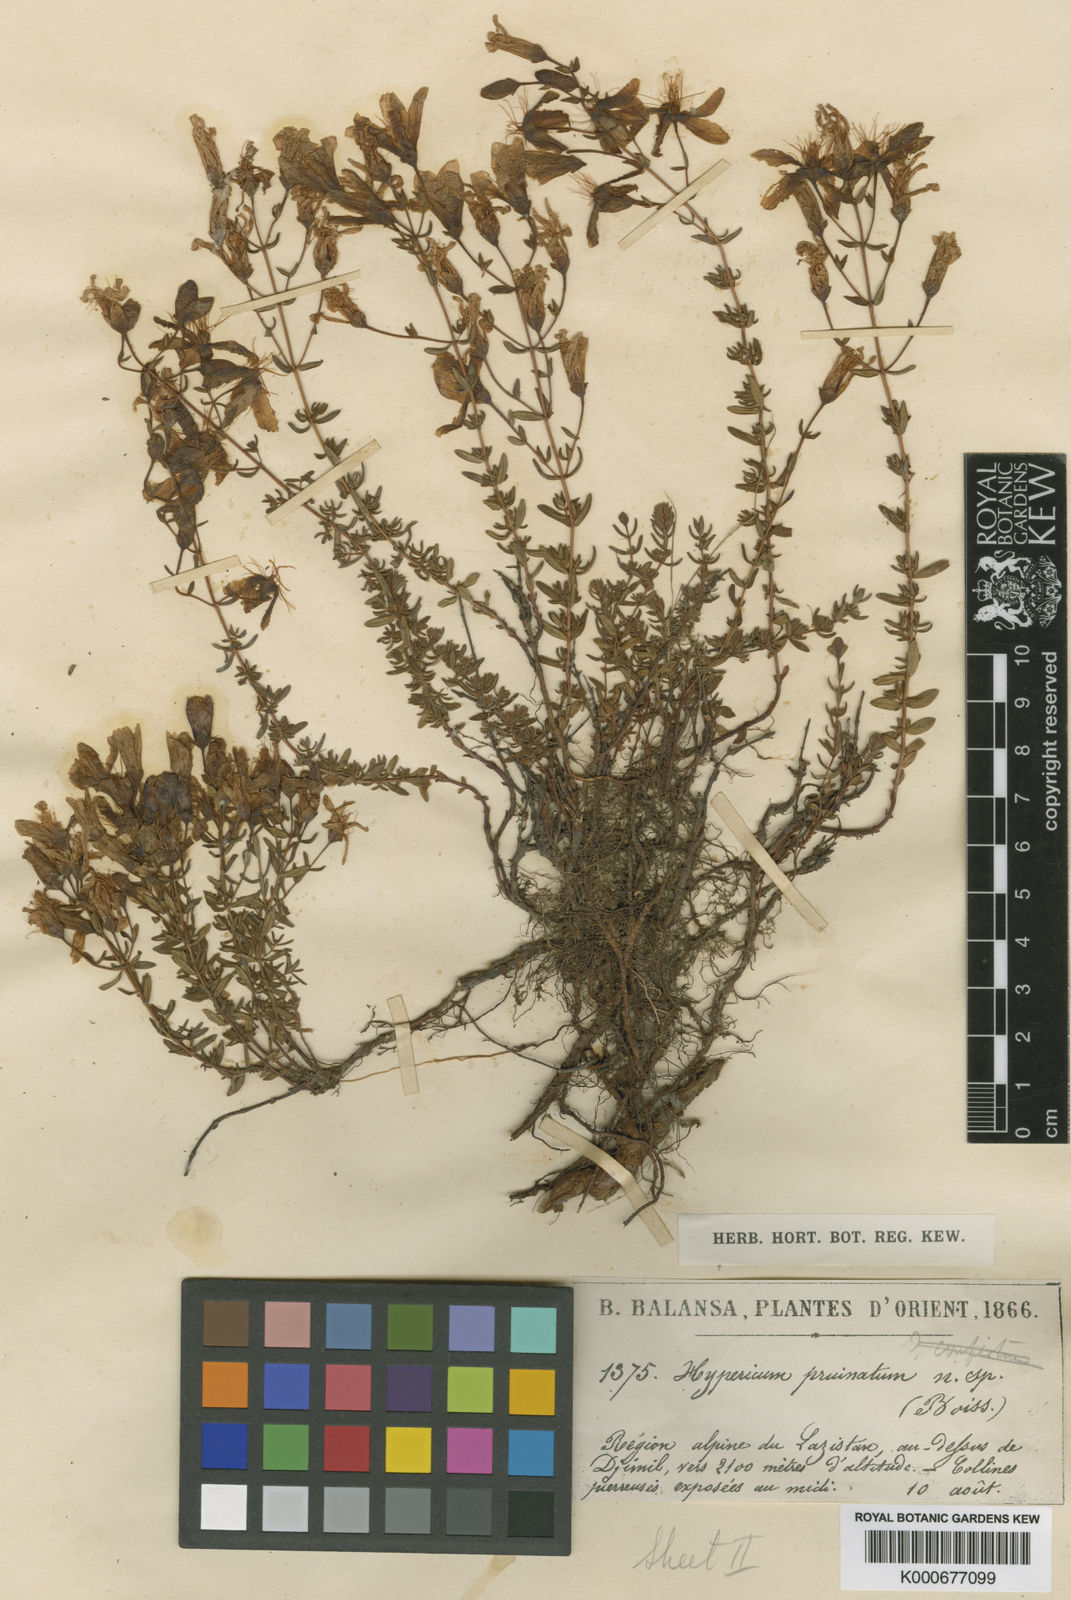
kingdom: Plantae
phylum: Tracheophyta
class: Magnoliopsida
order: Malpighiales
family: Hypericaceae
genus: Hypericum
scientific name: Hypericum pruinatum
